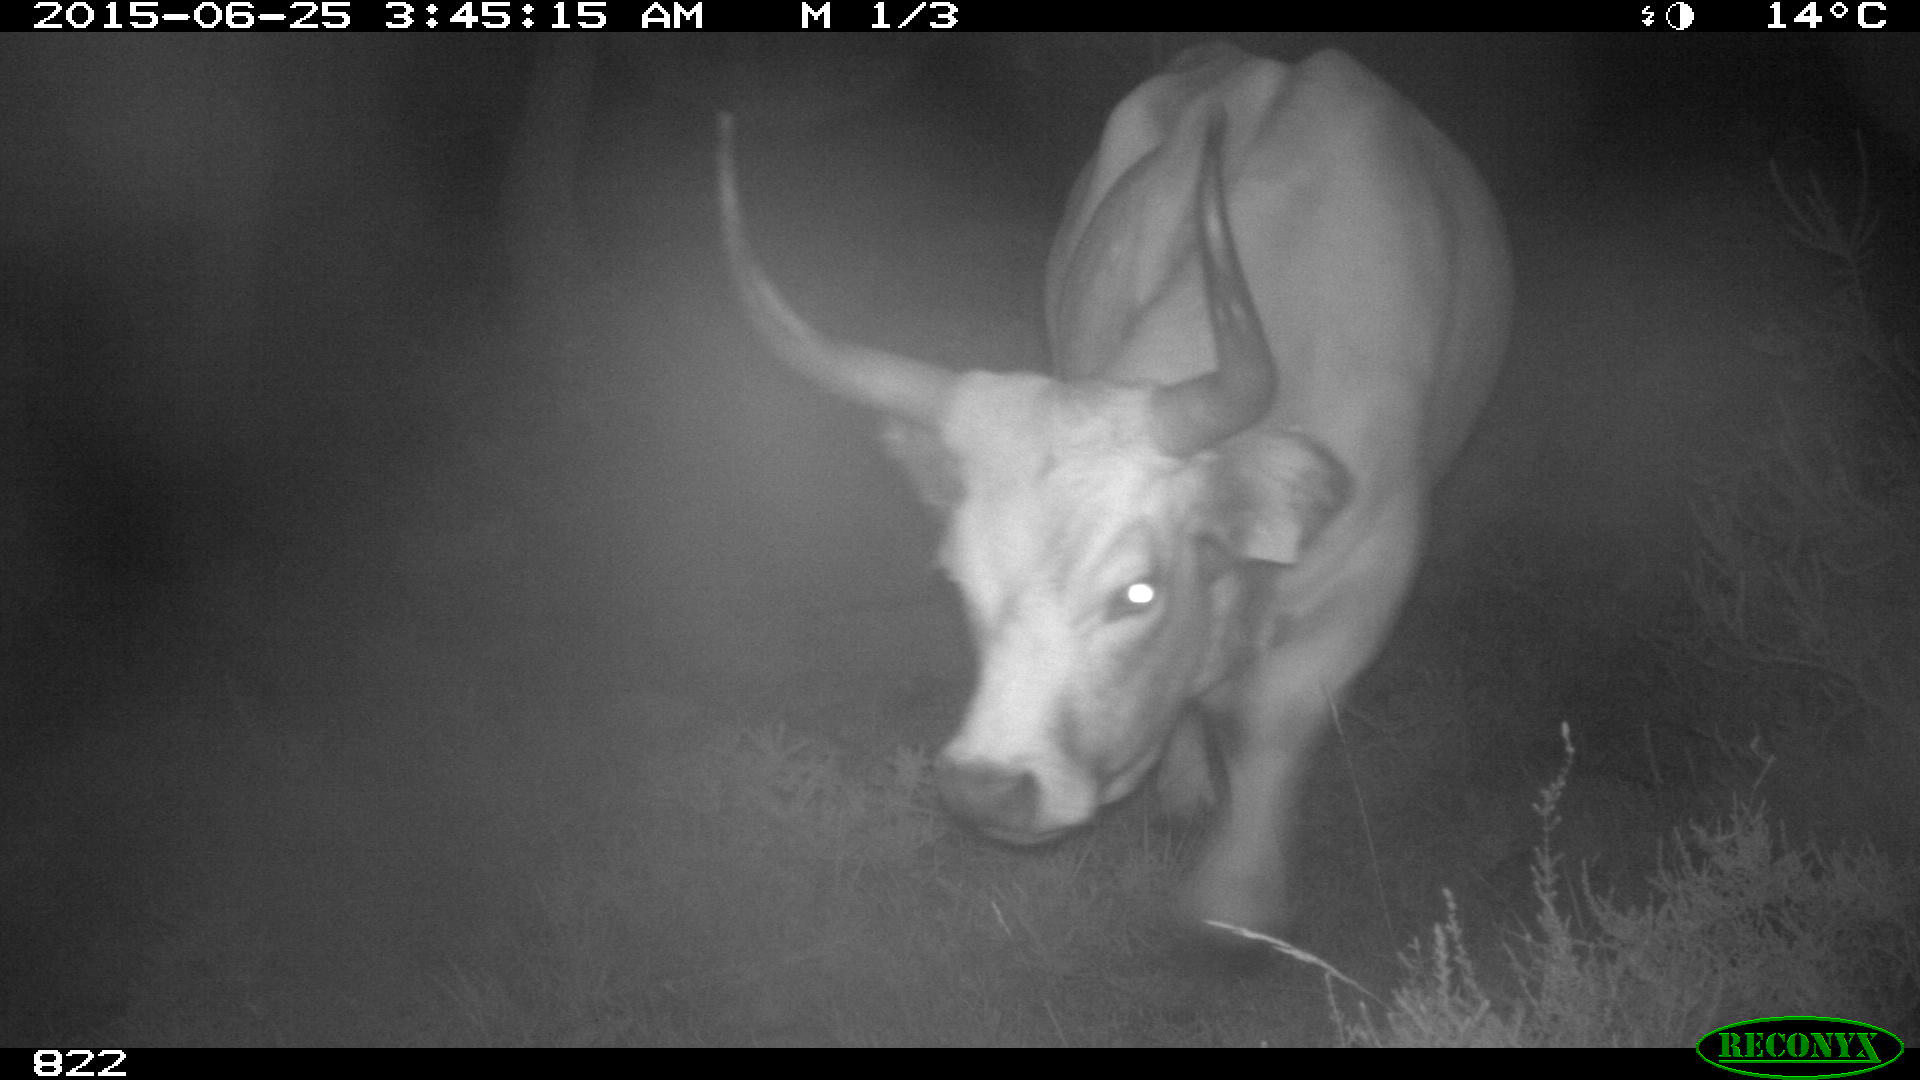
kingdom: Animalia
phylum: Chordata
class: Mammalia
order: Artiodactyla
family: Bovidae
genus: Bos
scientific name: Bos taurus
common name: Domesticated cattle
